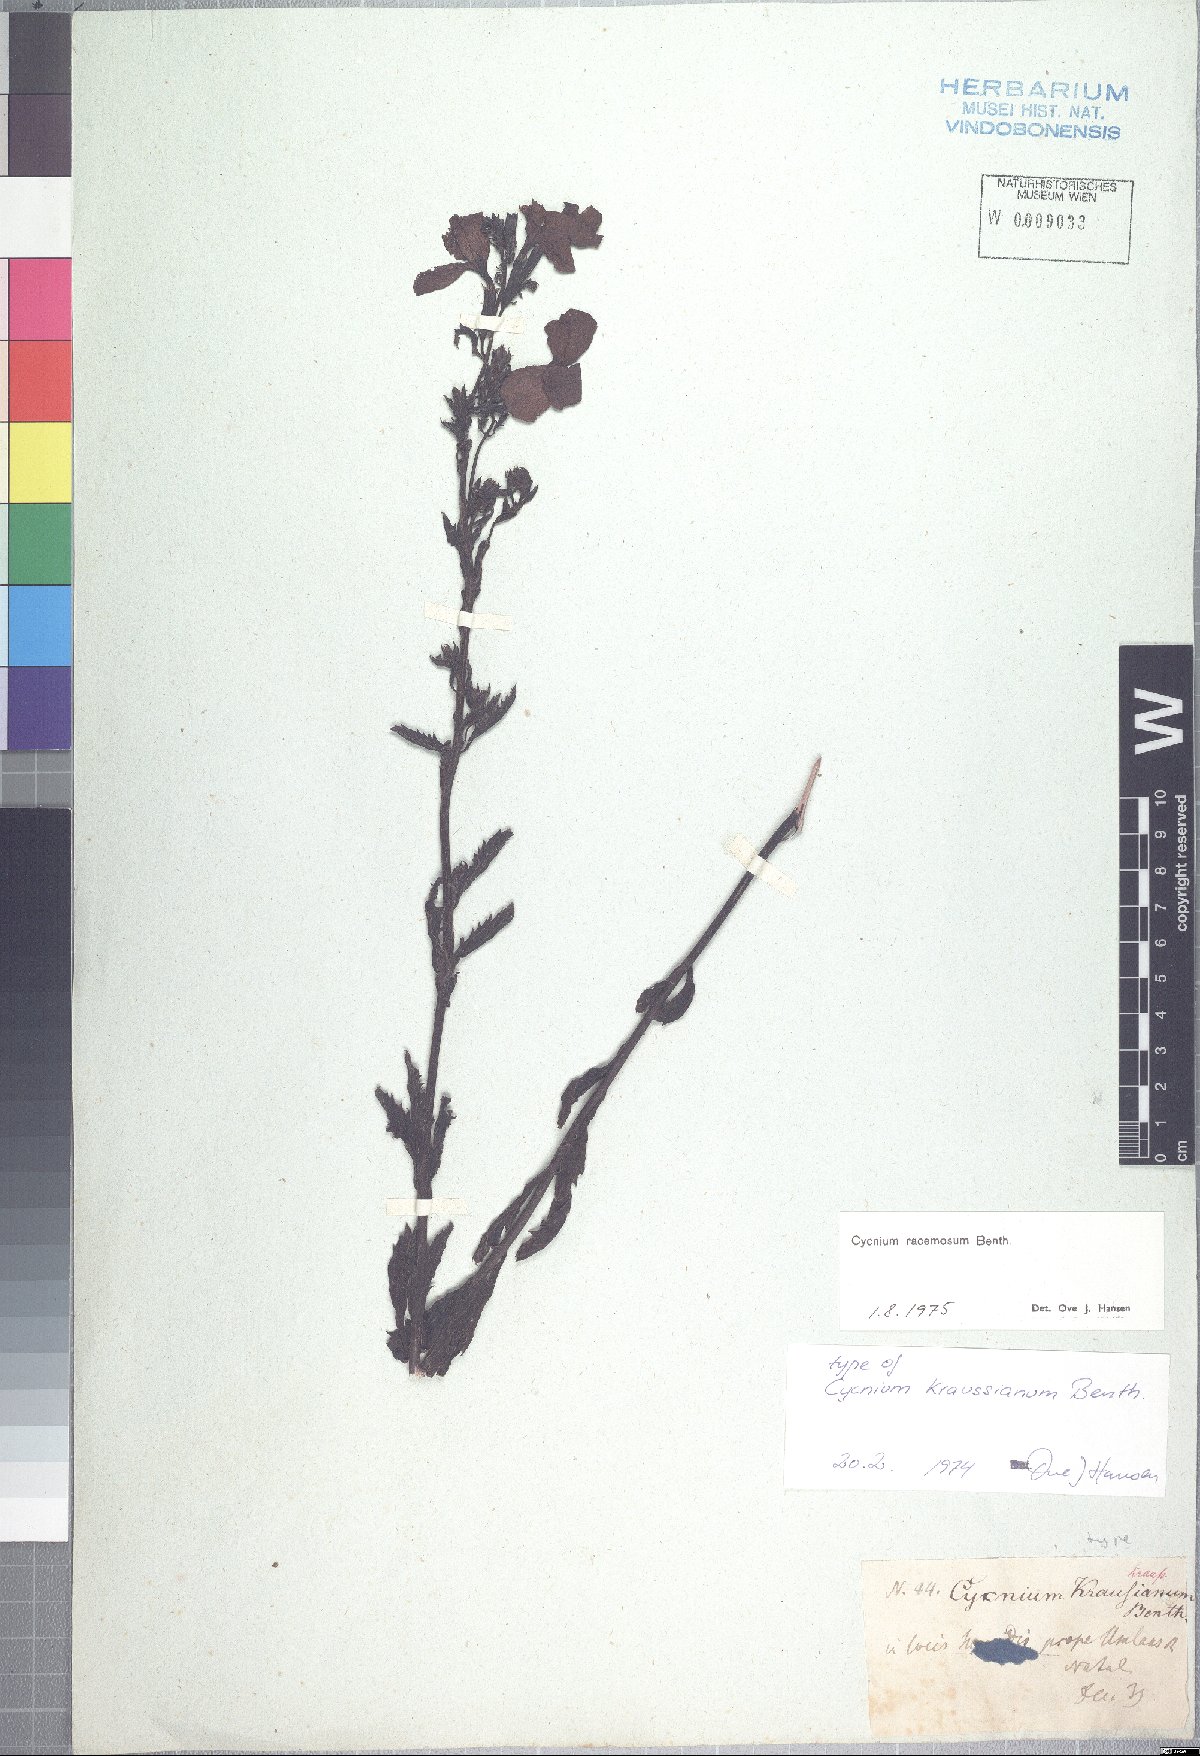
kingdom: Plantae
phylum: Tracheophyta
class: Magnoliopsida
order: Lamiales
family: Orobanchaceae
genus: Cycnium
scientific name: Cycnium racemosum
